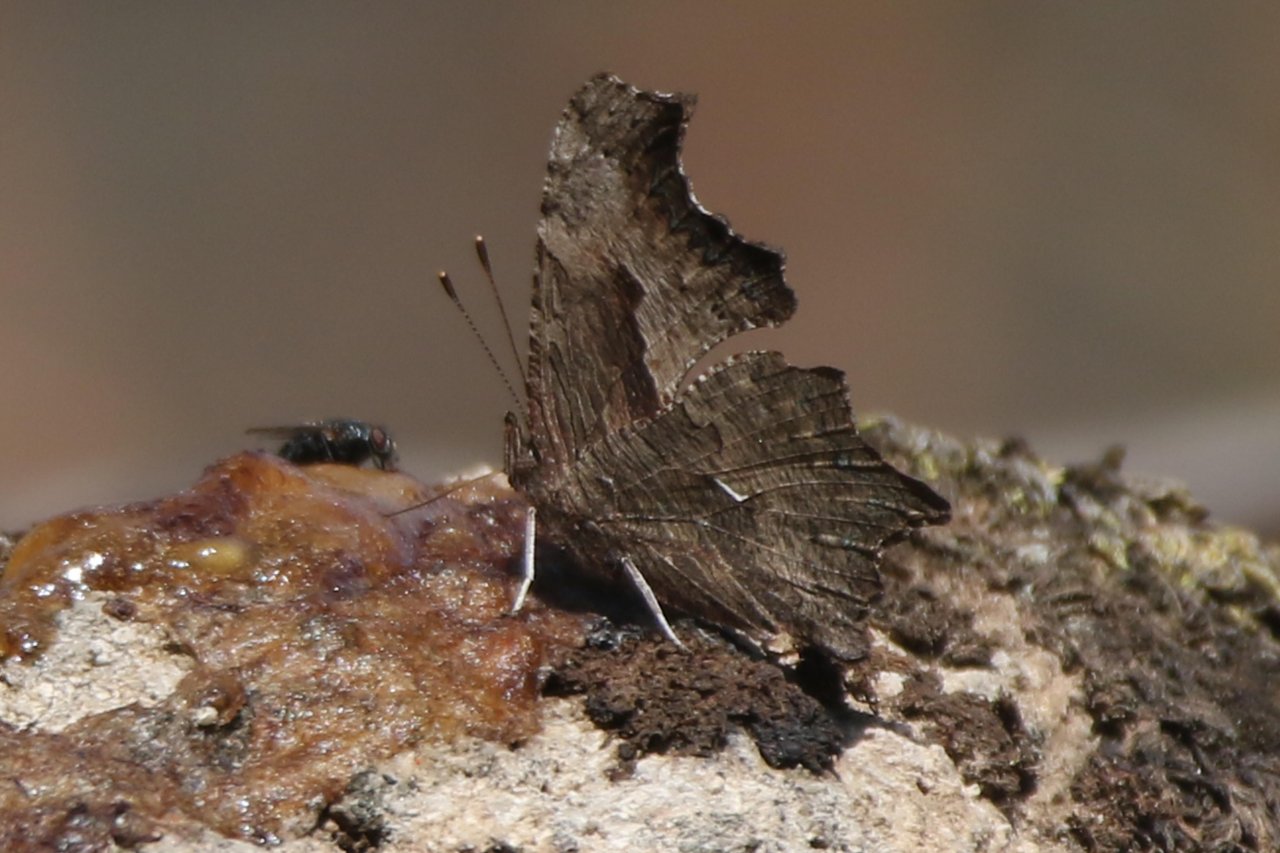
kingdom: Animalia
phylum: Arthropoda
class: Insecta
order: Lepidoptera
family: Nymphalidae
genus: Polygonia
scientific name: Polygonia progne
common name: Gray Comma
